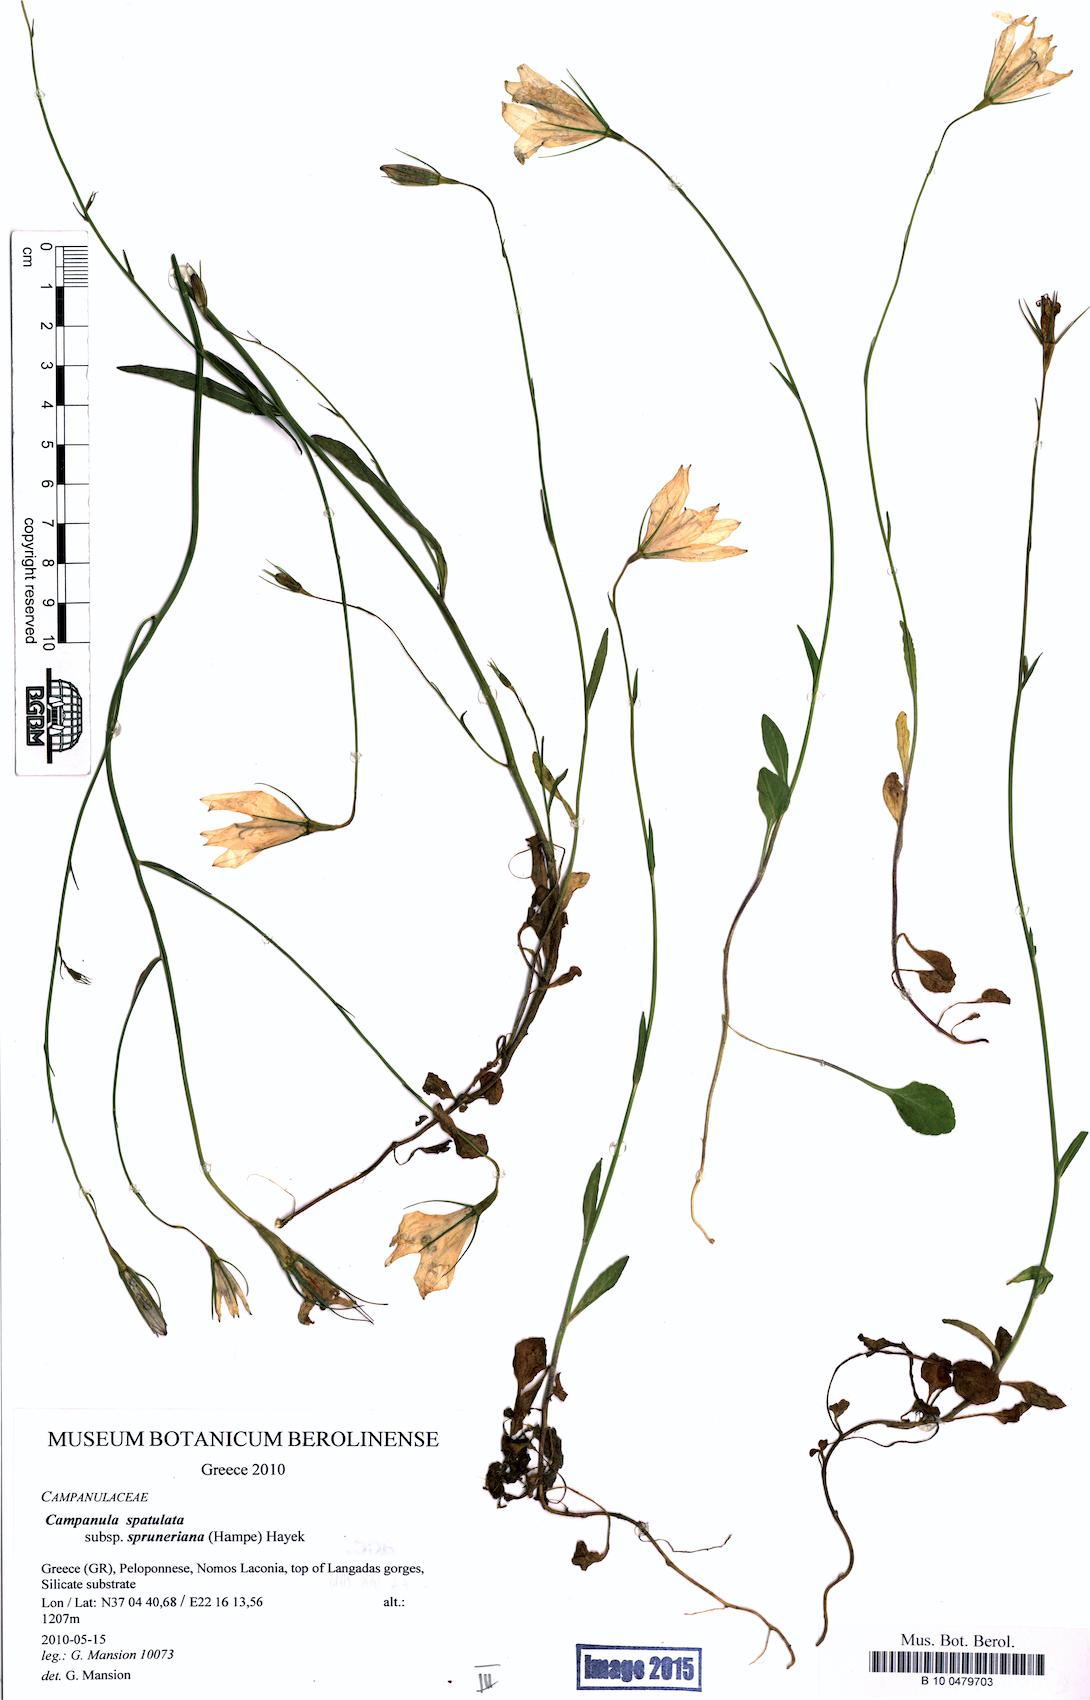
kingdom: Plantae
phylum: Tracheophyta
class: Magnoliopsida
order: Asterales
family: Campanulaceae
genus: Campanula
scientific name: Campanula spatulata
